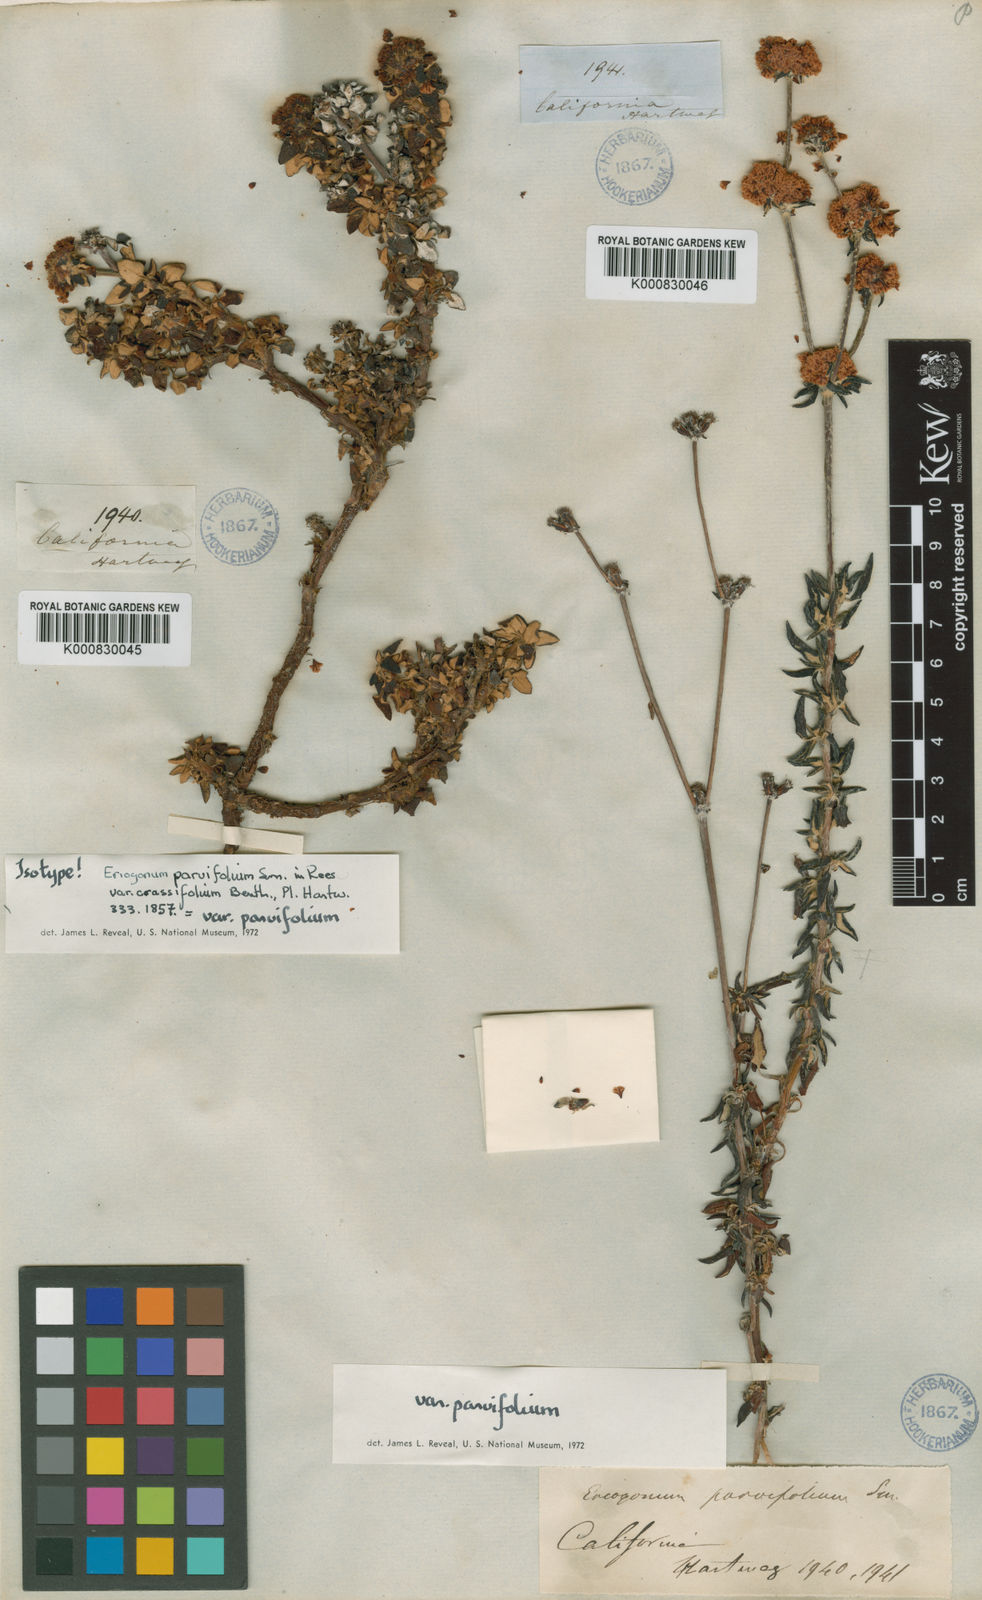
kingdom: Plantae
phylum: Tracheophyta
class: Magnoliopsida
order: Caryophyllales
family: Polygonaceae
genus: Eriogonum
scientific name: Eriogonum parvifolium
